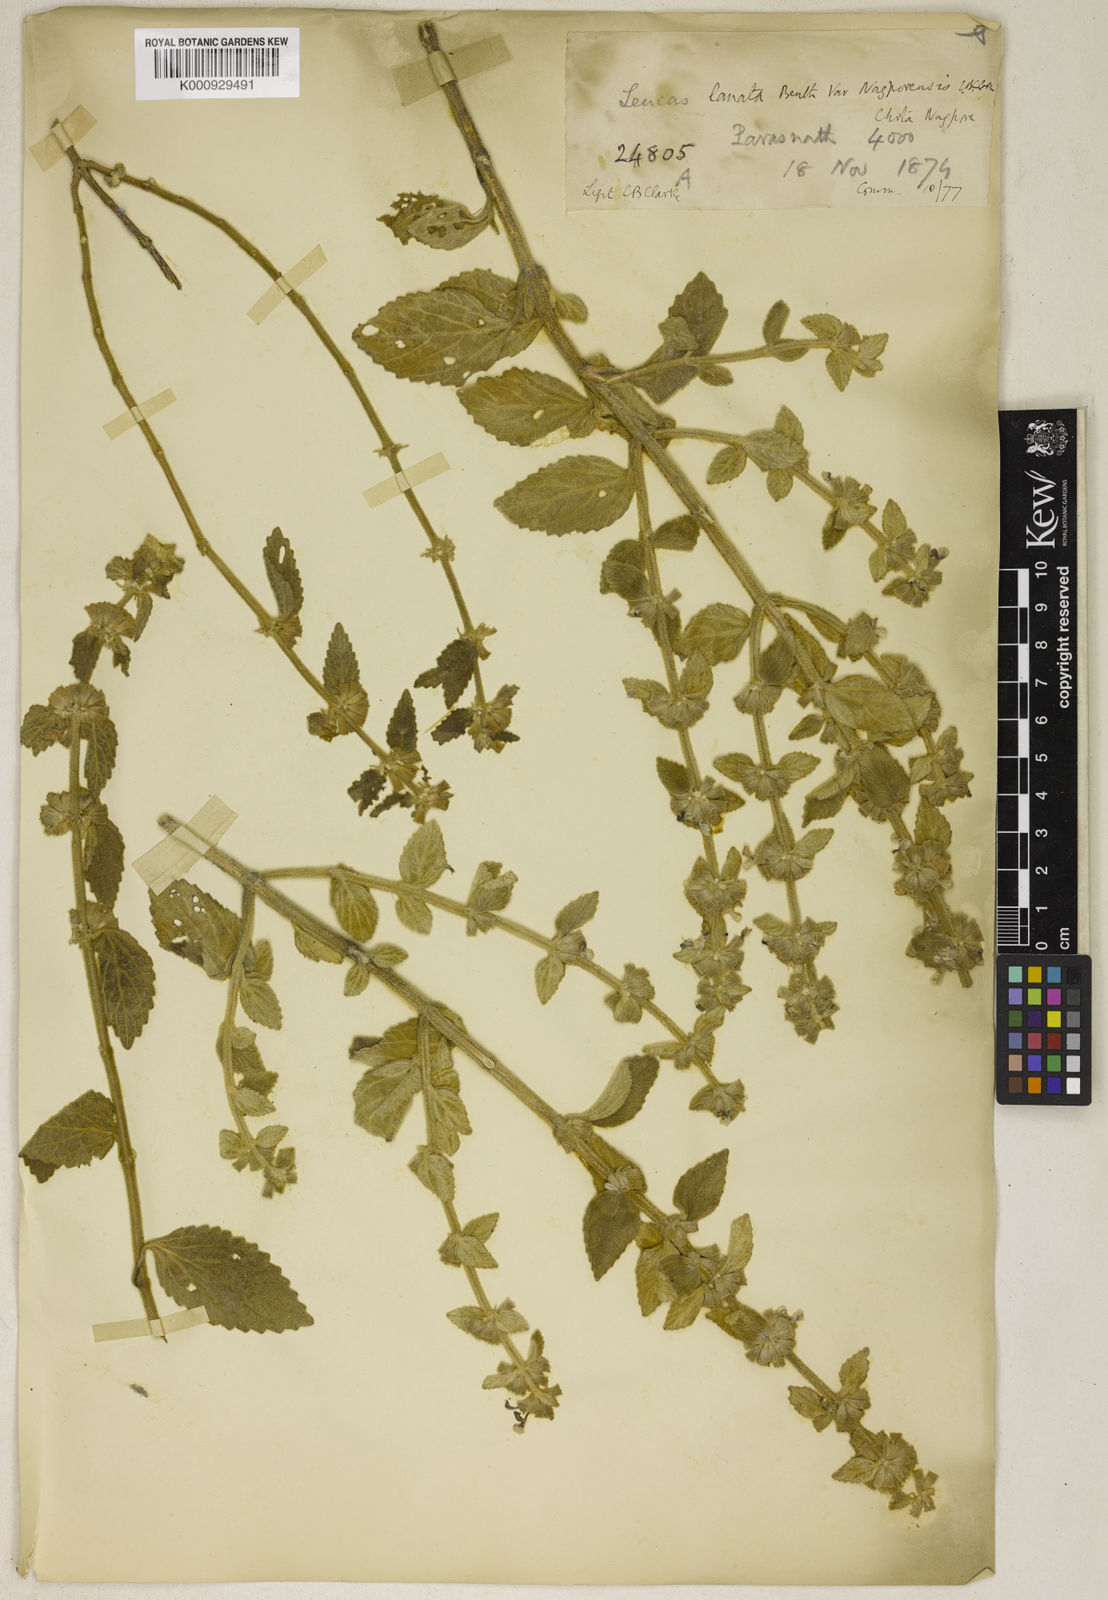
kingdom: Plantae
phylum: Tracheophyta
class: Magnoliopsida
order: Lamiales
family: Lamiaceae
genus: Leucas
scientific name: Leucas lanata
